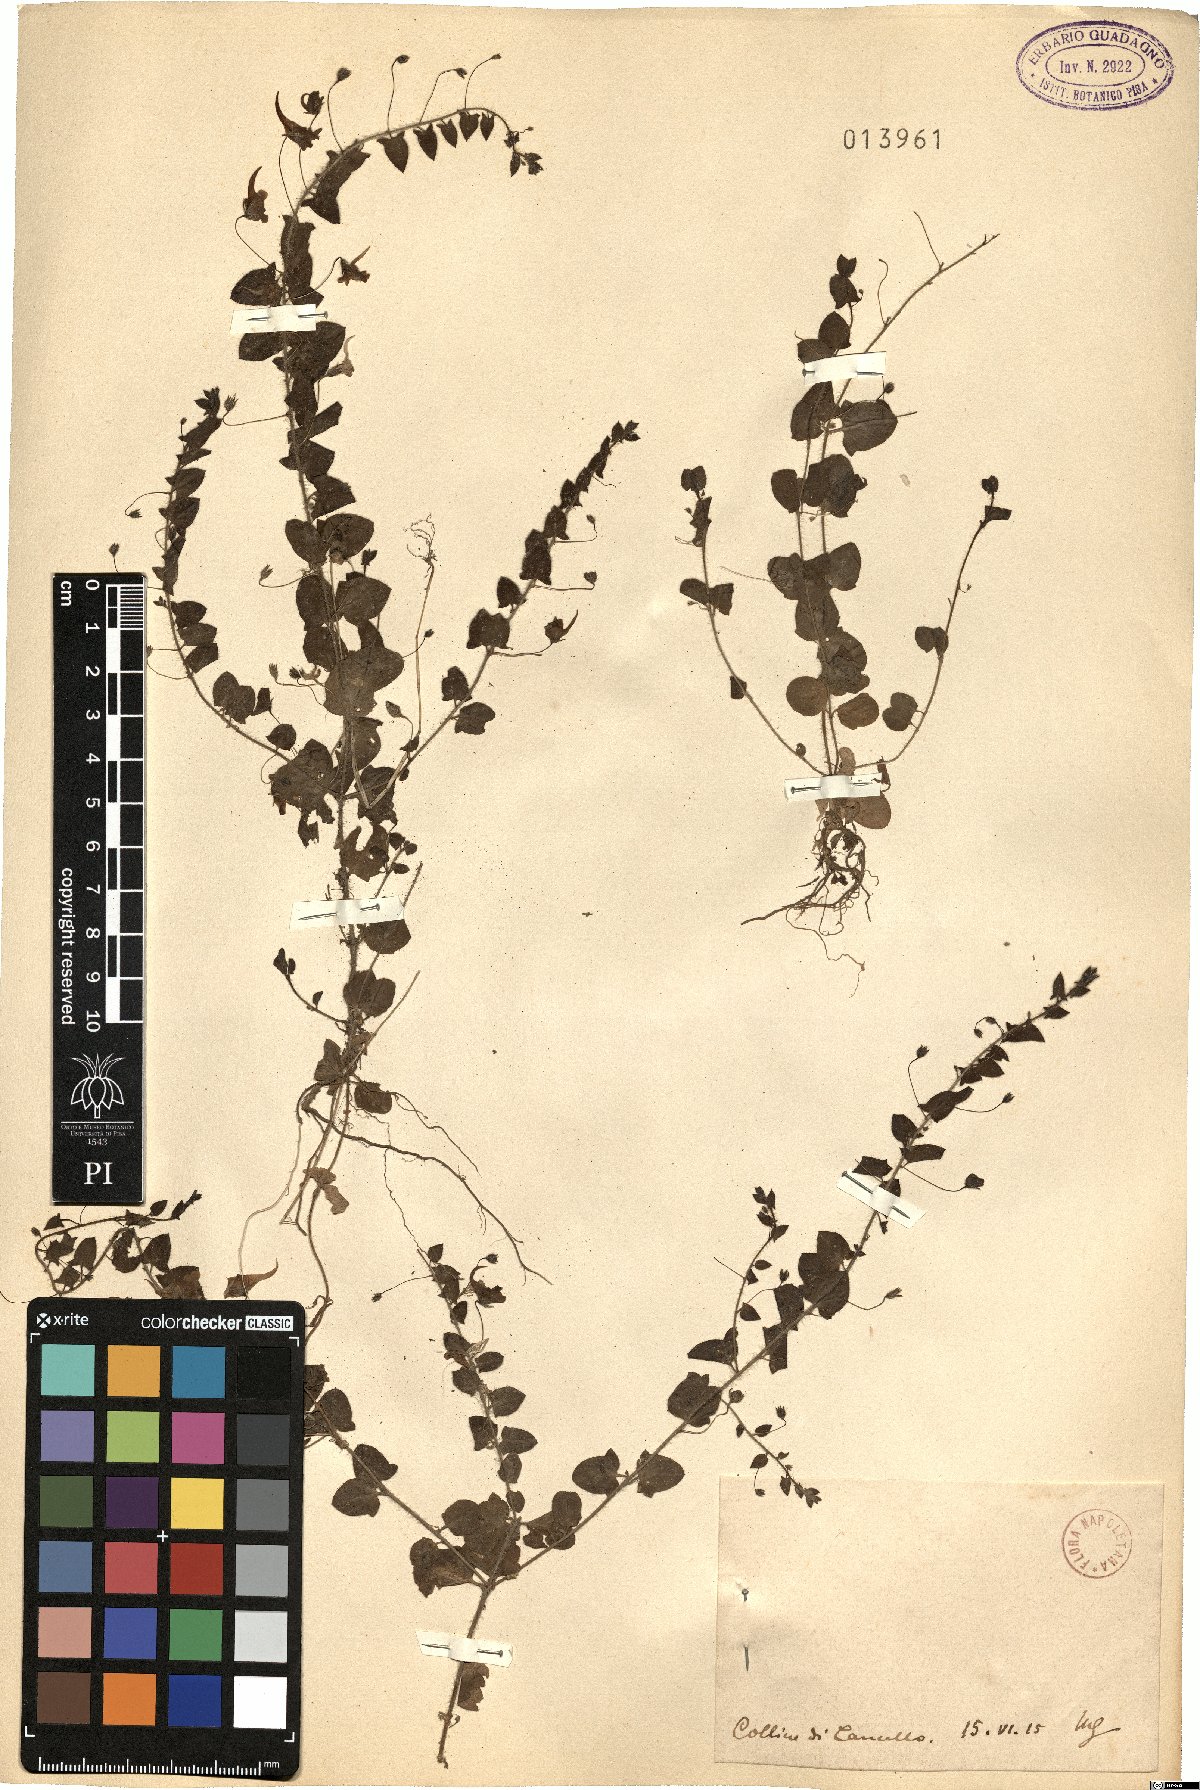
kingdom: Plantae
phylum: Tracheophyta
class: Magnoliopsida
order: Lamiales
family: Plantaginaceae
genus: Linaria
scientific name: Linaria
